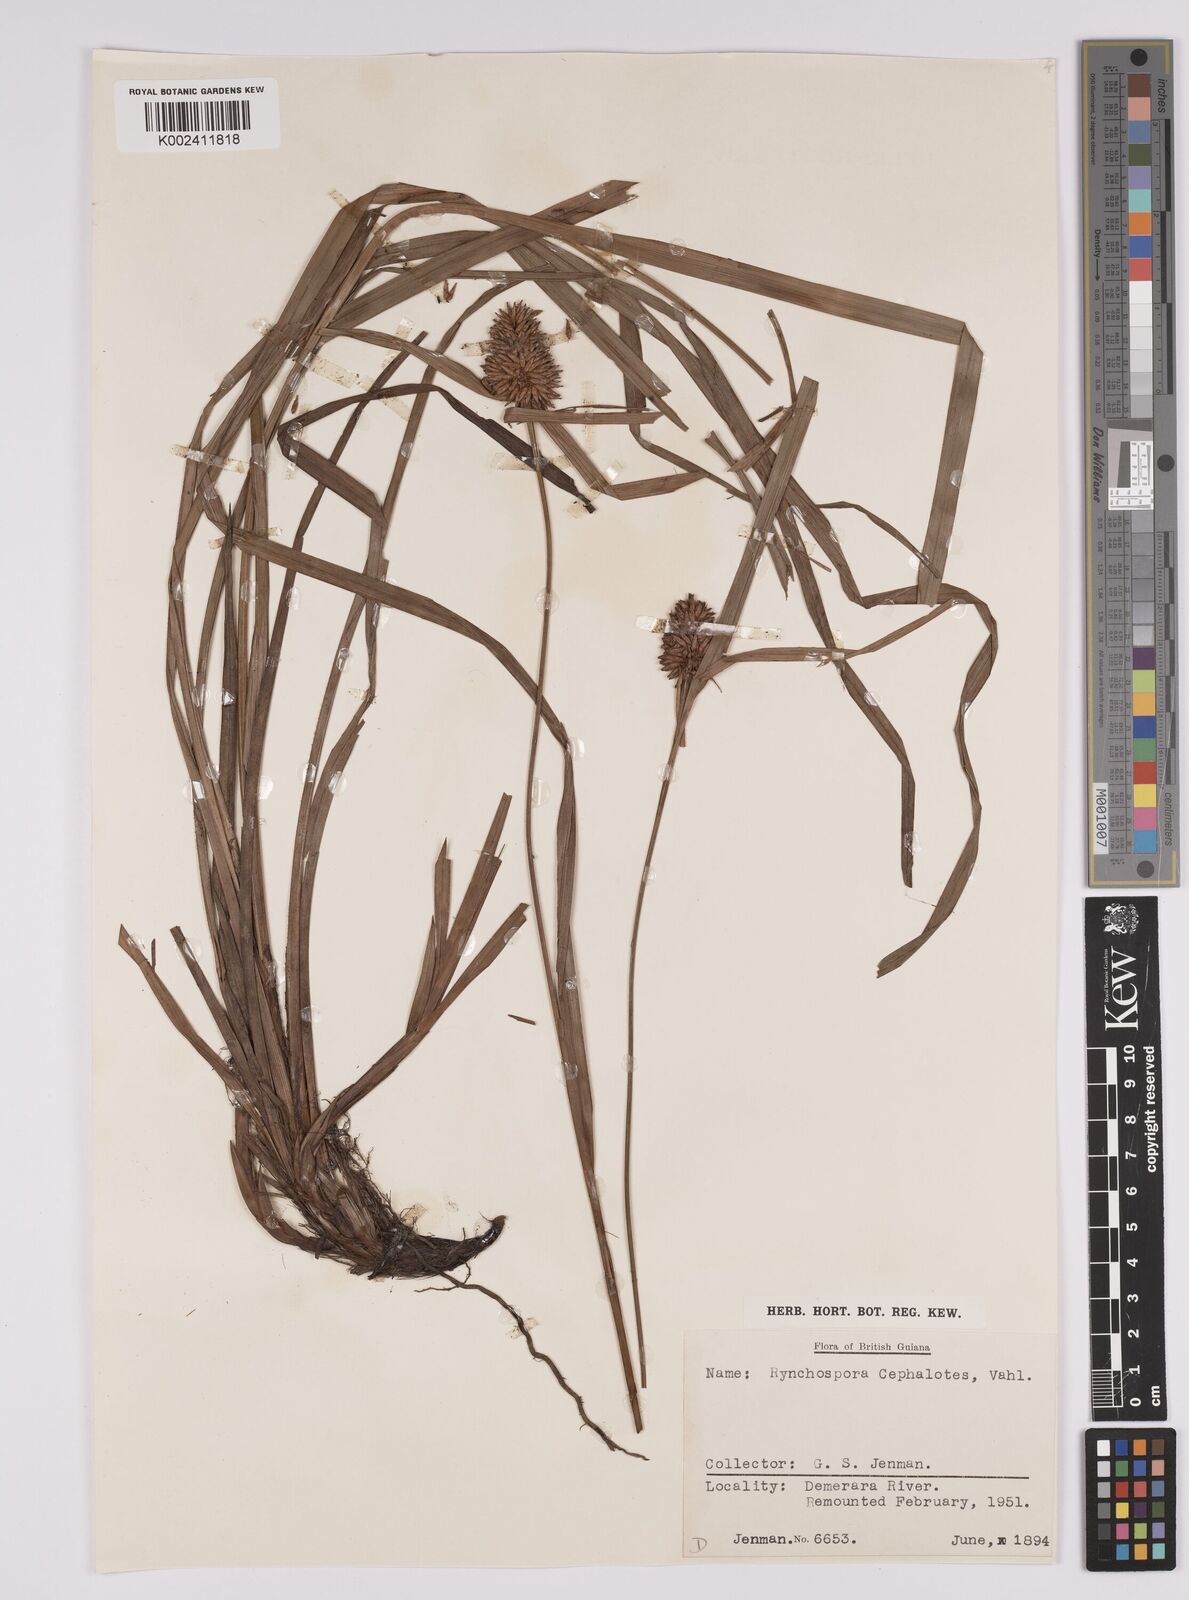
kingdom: Plantae
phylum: Tracheophyta
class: Liliopsida
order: Poales
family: Cyperaceae
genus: Rhynchospora
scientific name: Rhynchospora cephalotes
